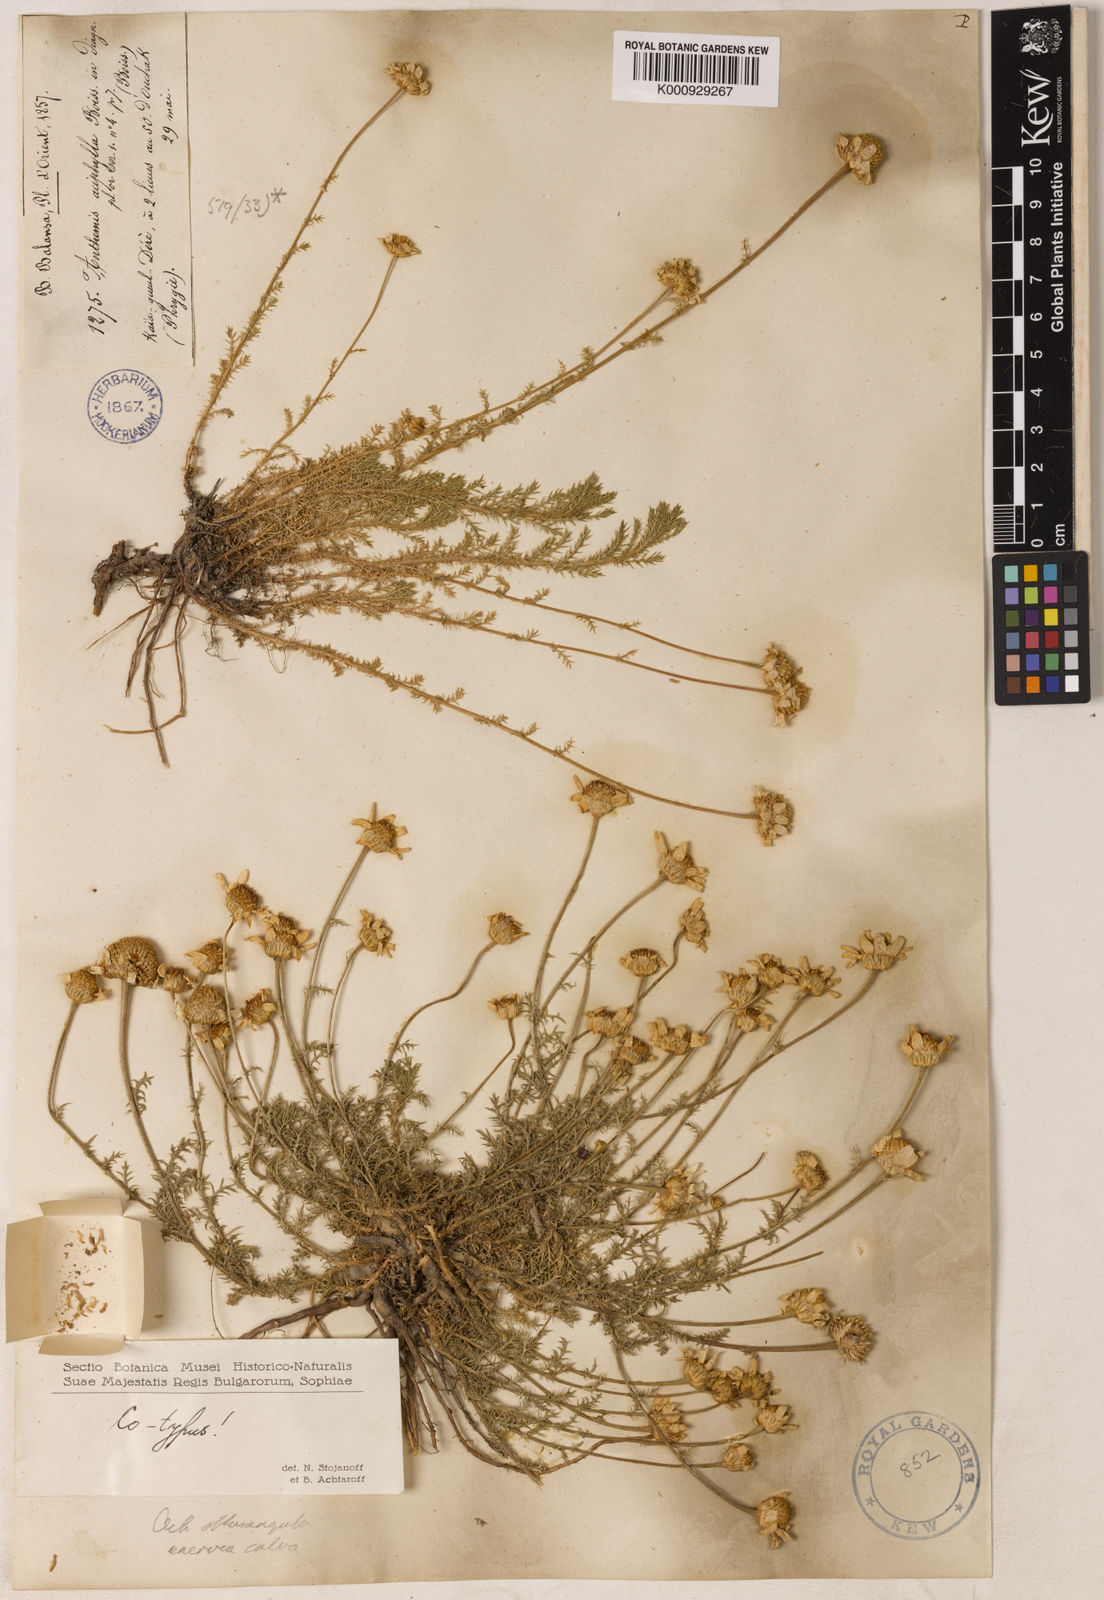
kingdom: Plantae
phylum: Tracheophyta
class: Magnoliopsida
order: Asterales
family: Asteraceae
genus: Anthemis
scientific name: Anthemis aciphylla
